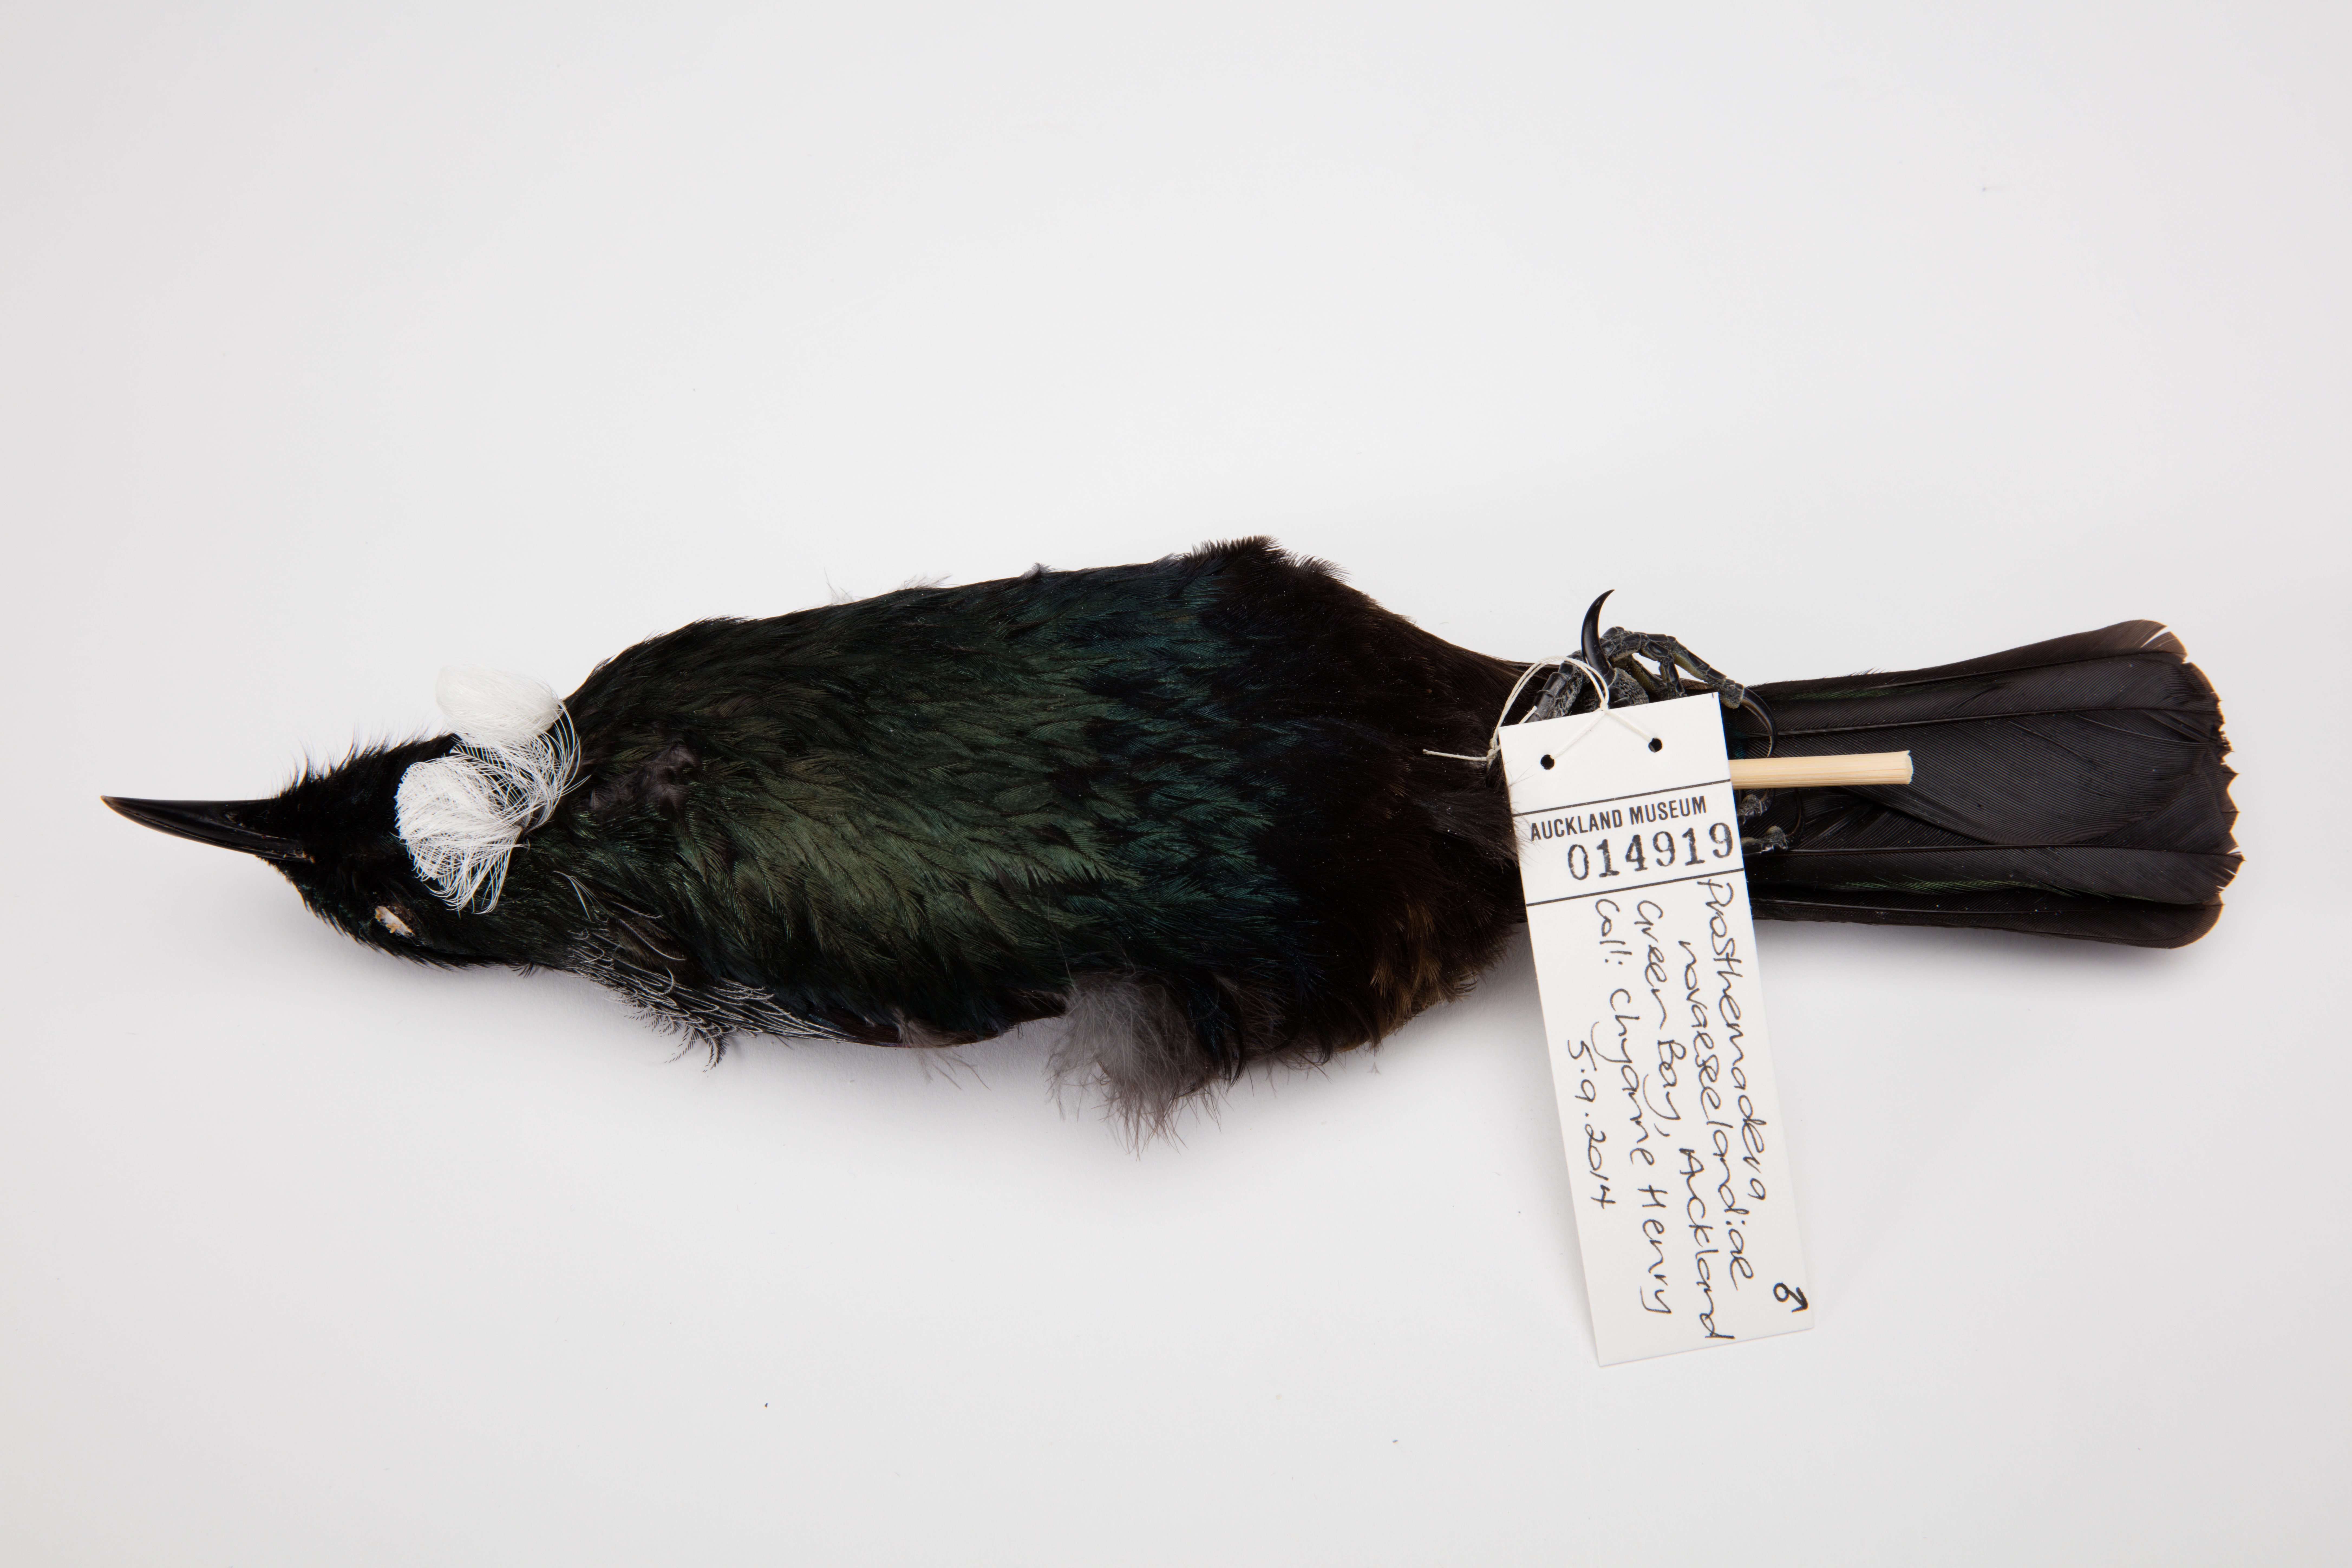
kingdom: Animalia
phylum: Chordata
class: Aves
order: Passeriformes
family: Meliphagidae
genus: Prosthemadera
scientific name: Prosthemadera novaeseelandiae
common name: Tui
